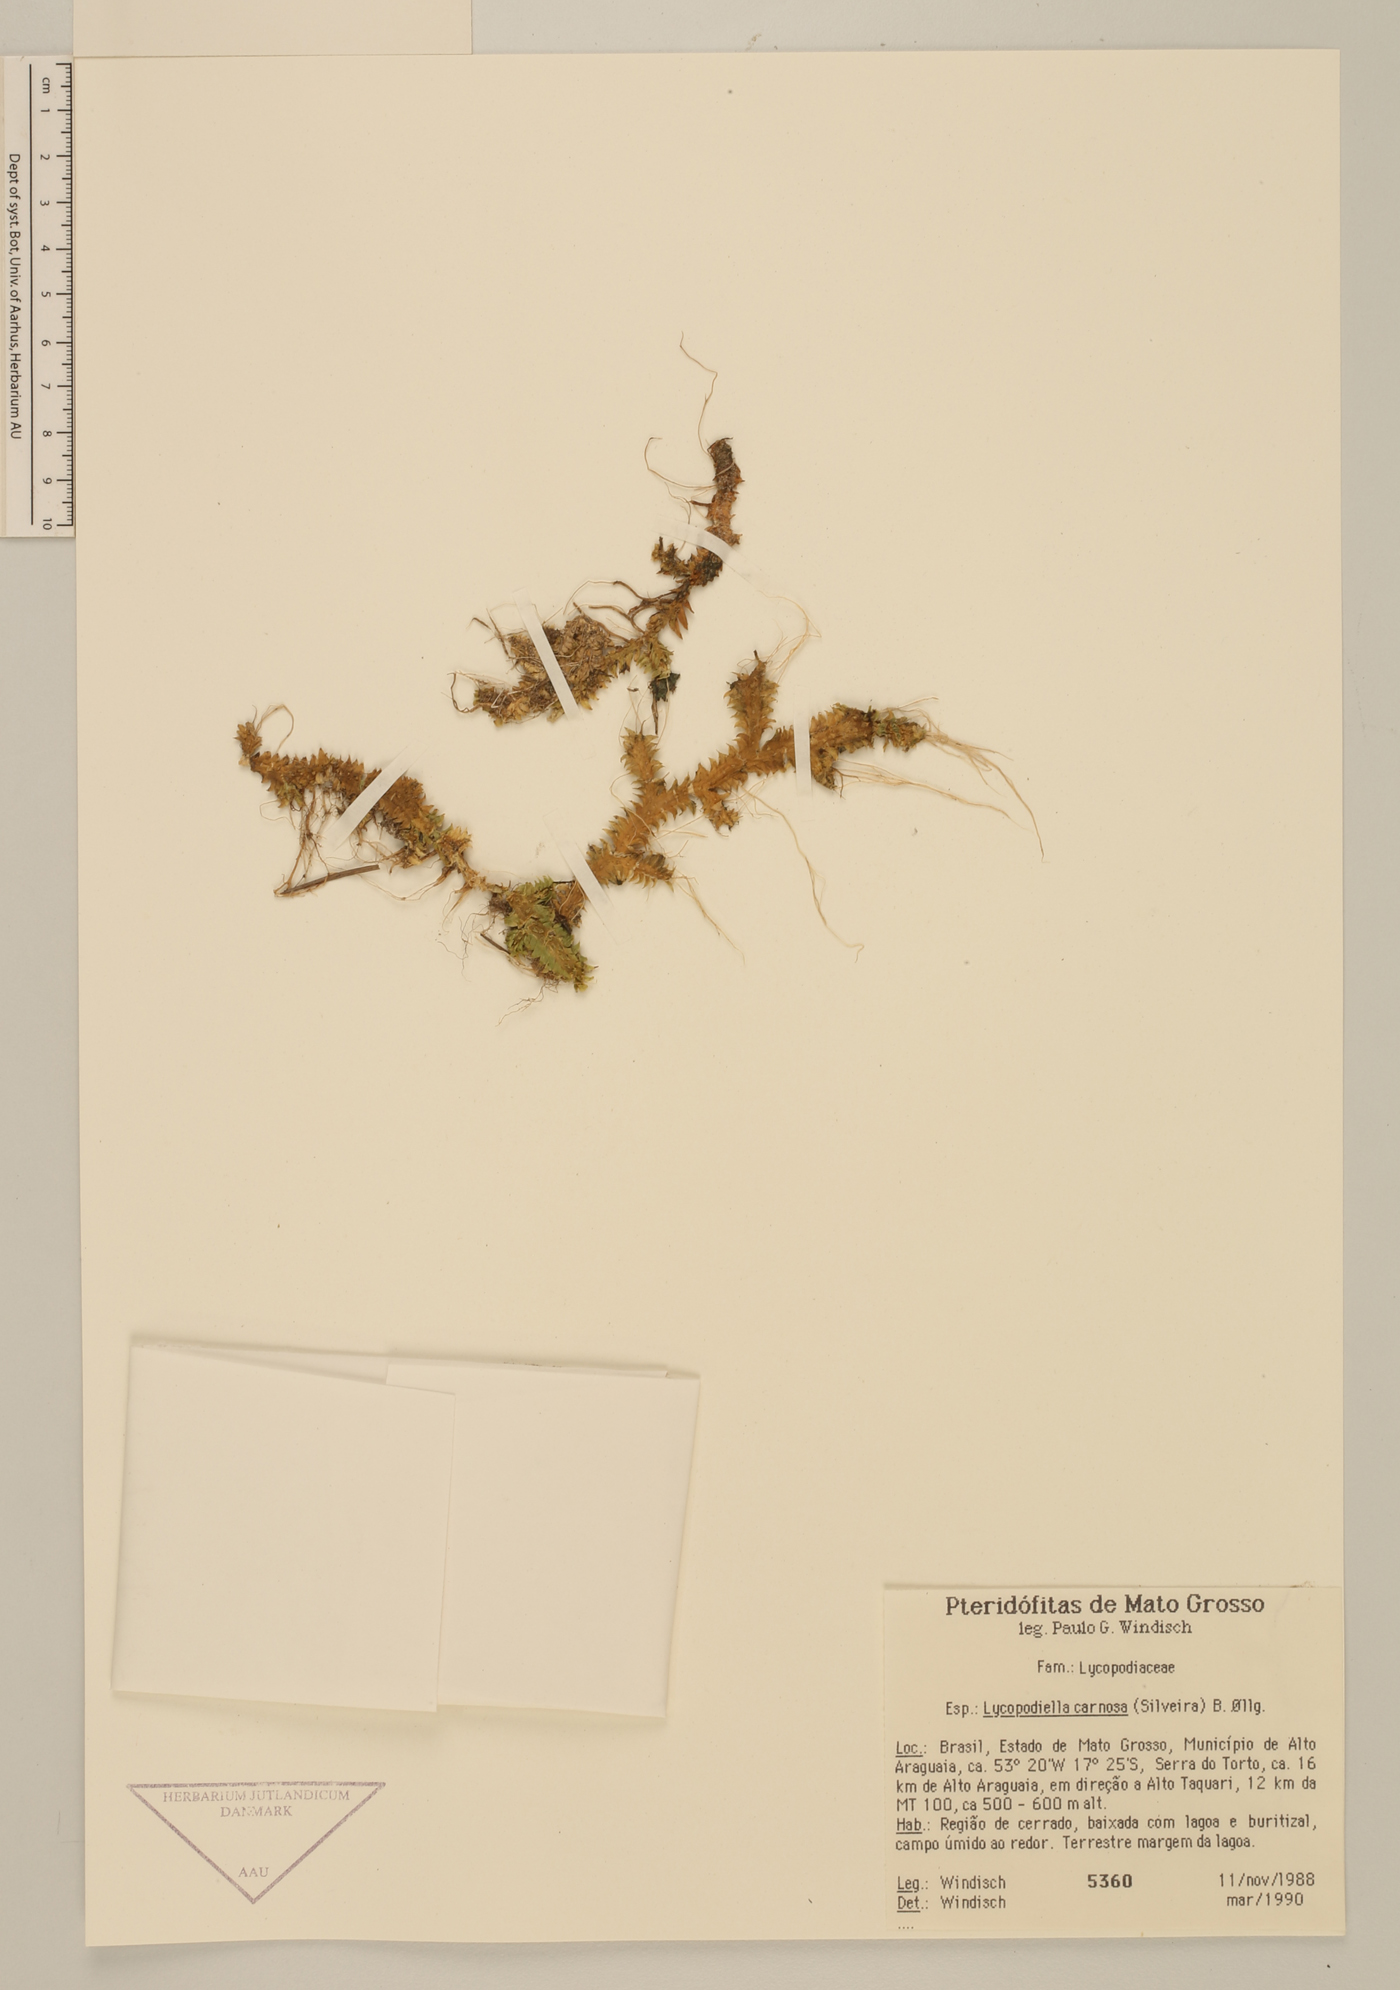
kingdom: Plantae
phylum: Tracheophyta
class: Lycopodiopsida
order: Lycopodiales
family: Lycopodiaceae
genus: Pseudolycopodiella
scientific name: Pseudolycopodiella carnosa
